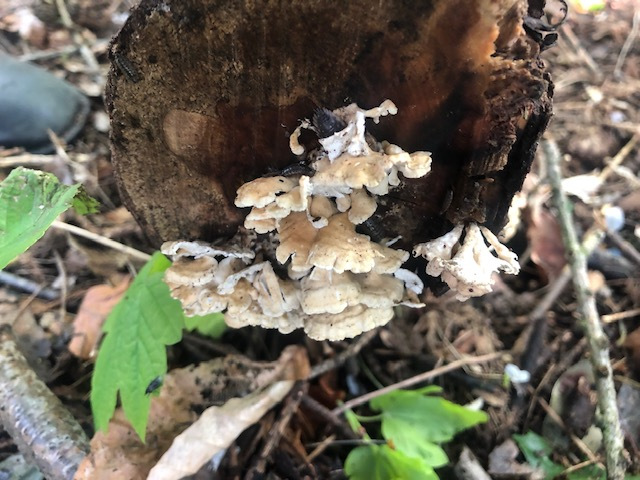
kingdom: Fungi
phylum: Basidiomycota
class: Agaricomycetes
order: Amylocorticiales
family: Amylocorticiaceae
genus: Plicaturopsis
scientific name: Plicaturopsis crispa
